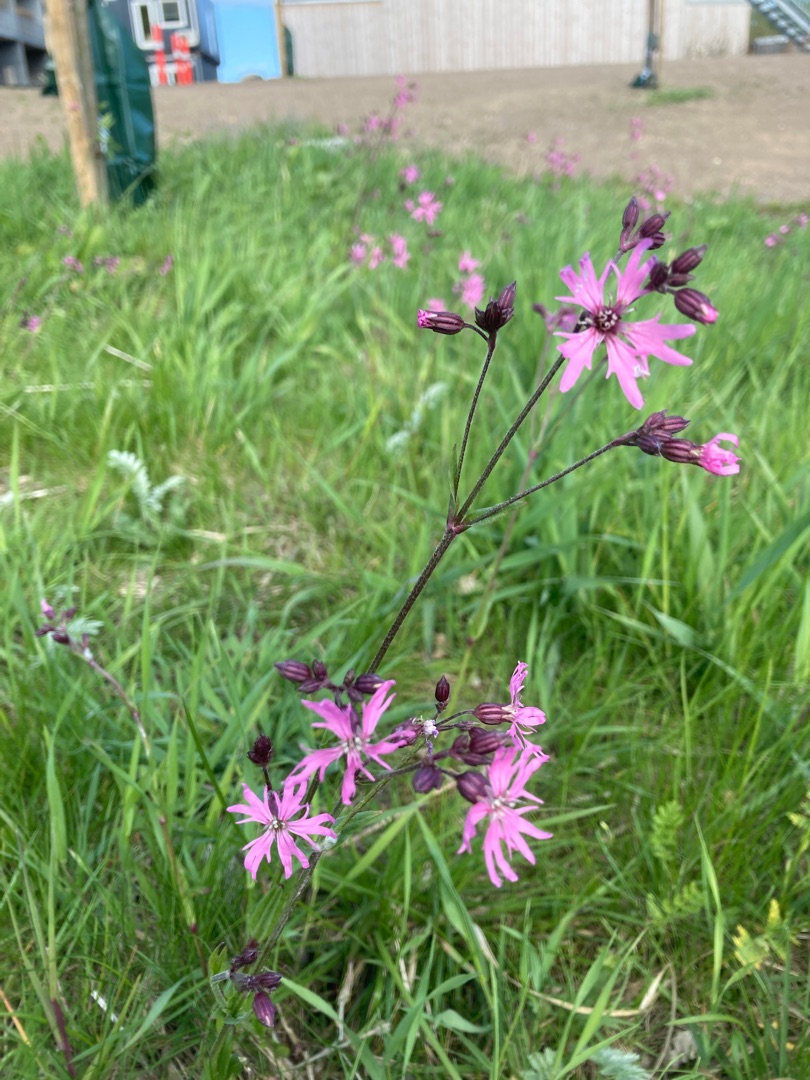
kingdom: Plantae
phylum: Tracheophyta
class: Magnoliopsida
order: Caryophyllales
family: Caryophyllaceae
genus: Silene
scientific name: Silene flos-cuculi
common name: Trævlekrone
